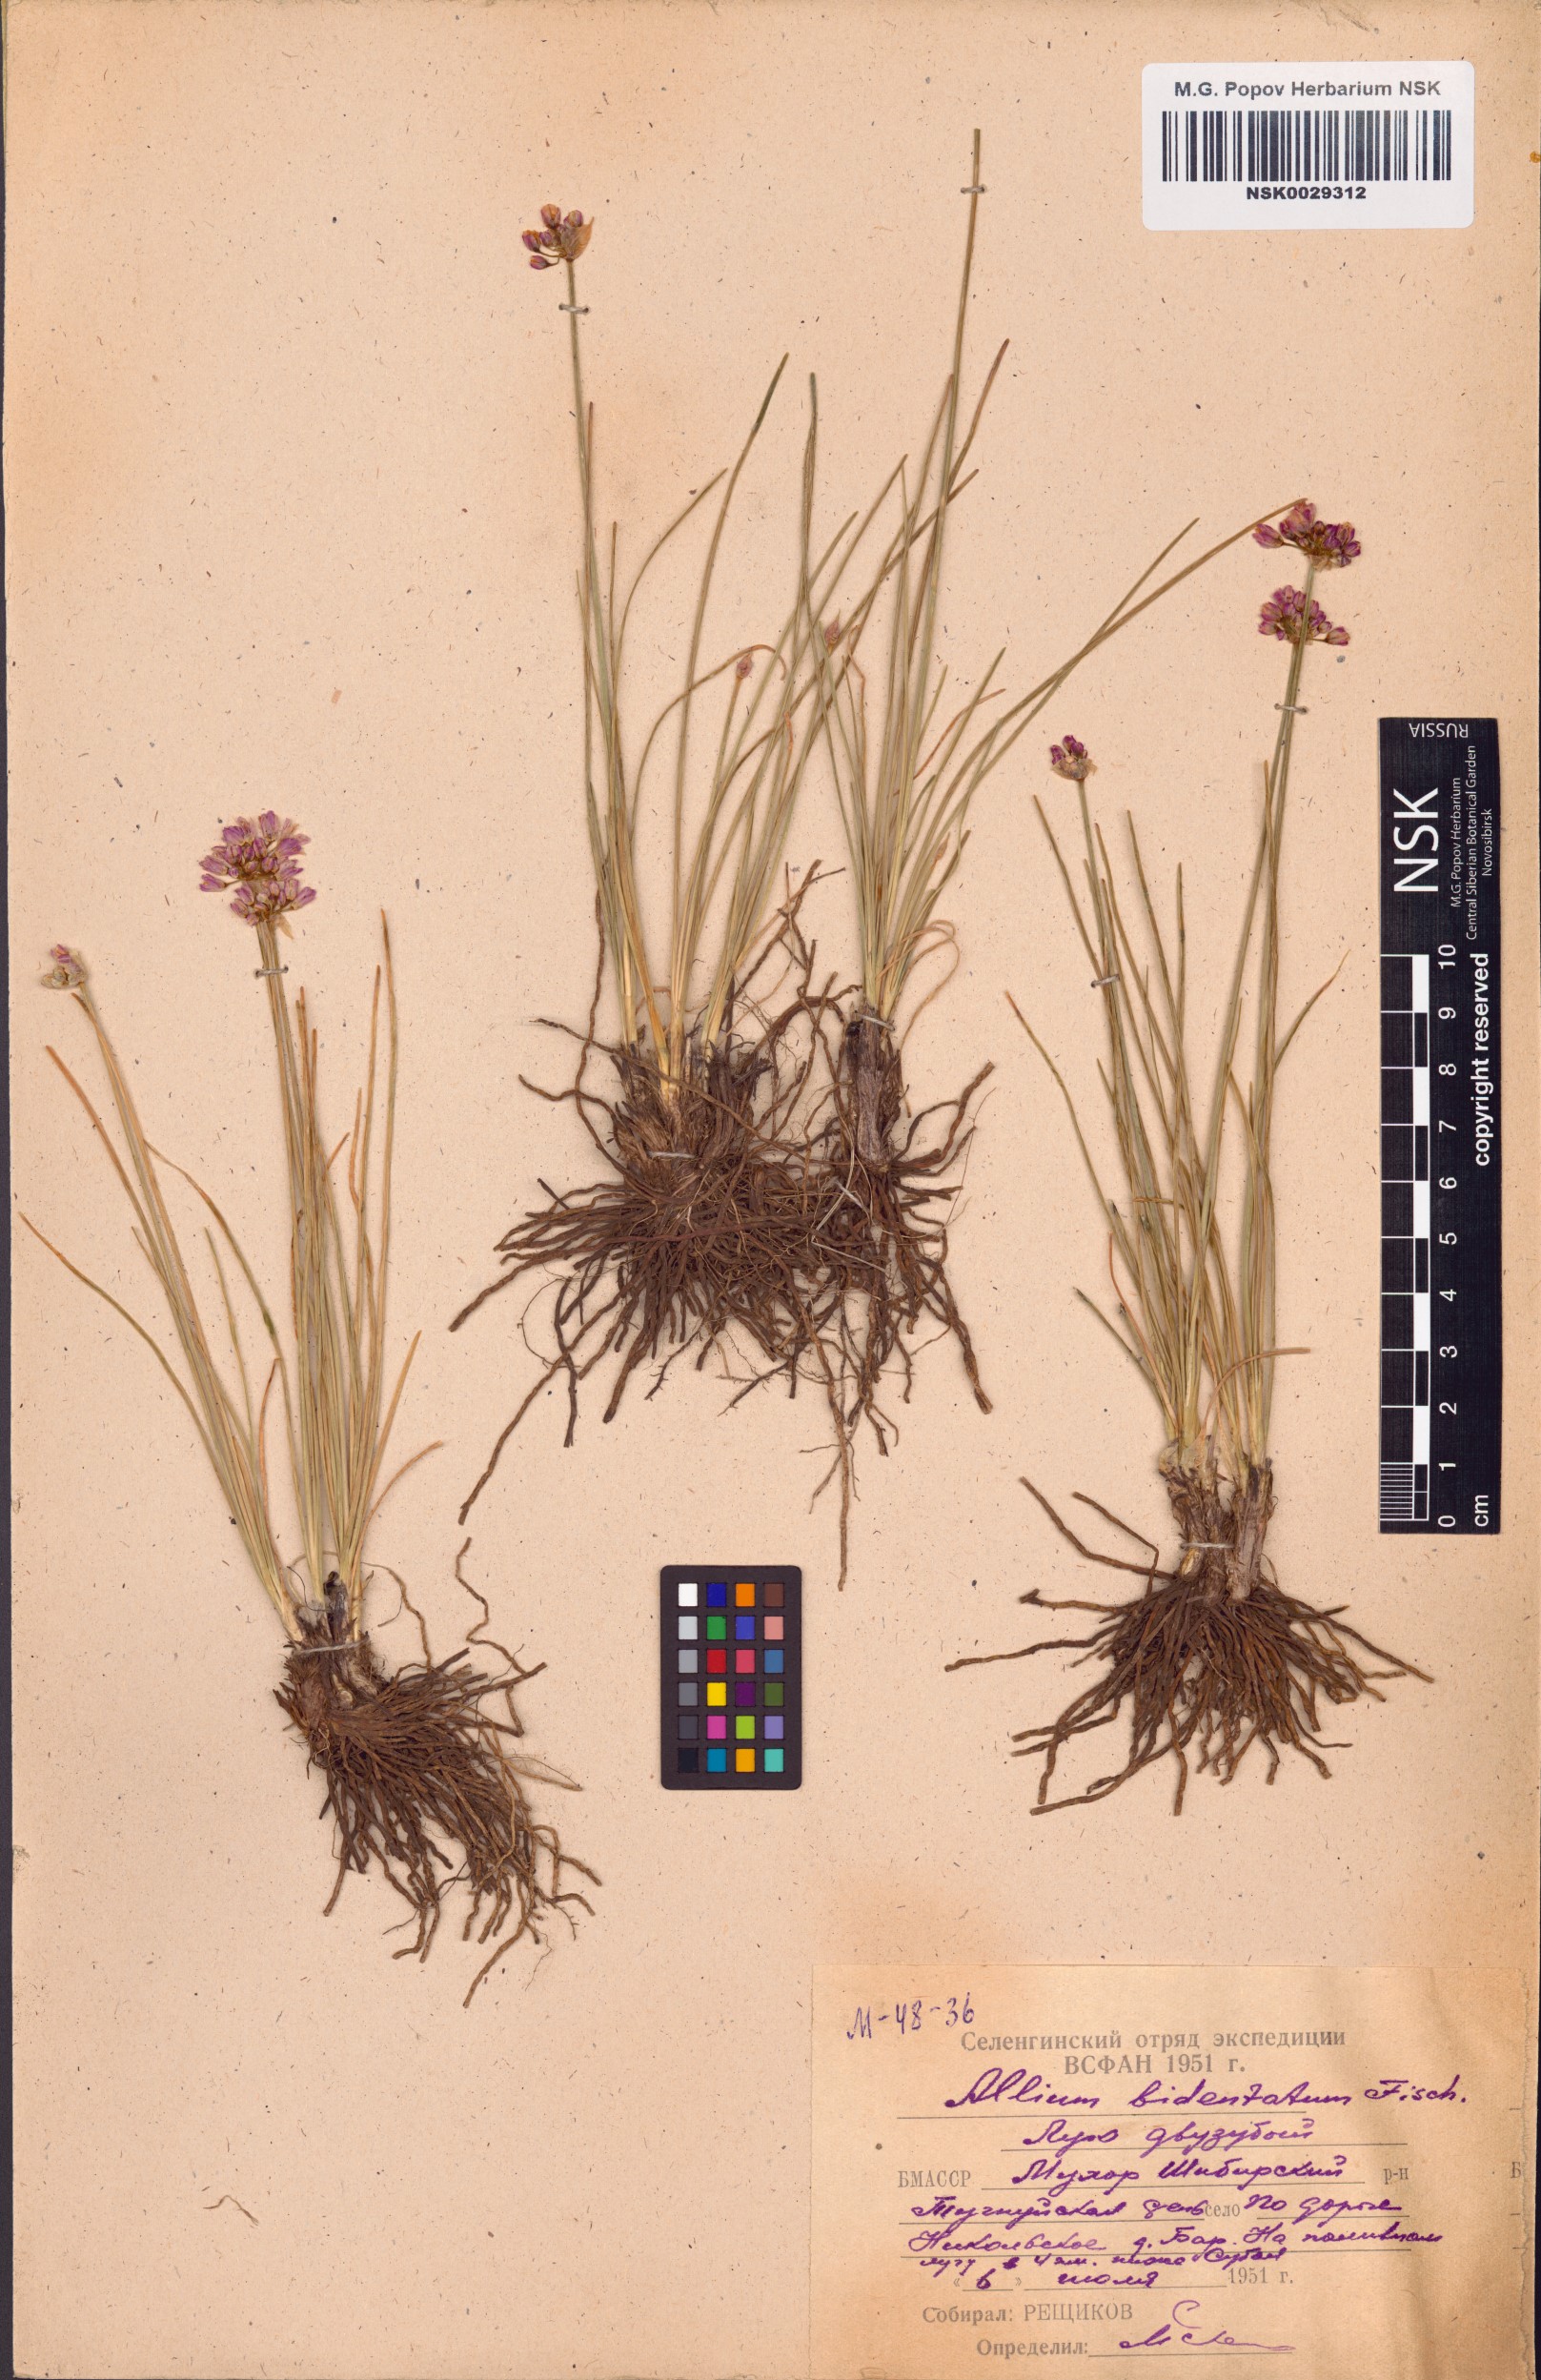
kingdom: Plantae
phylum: Tracheophyta
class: Liliopsida
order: Asparagales
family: Amaryllidaceae
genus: Allium
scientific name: Allium bidentatum
